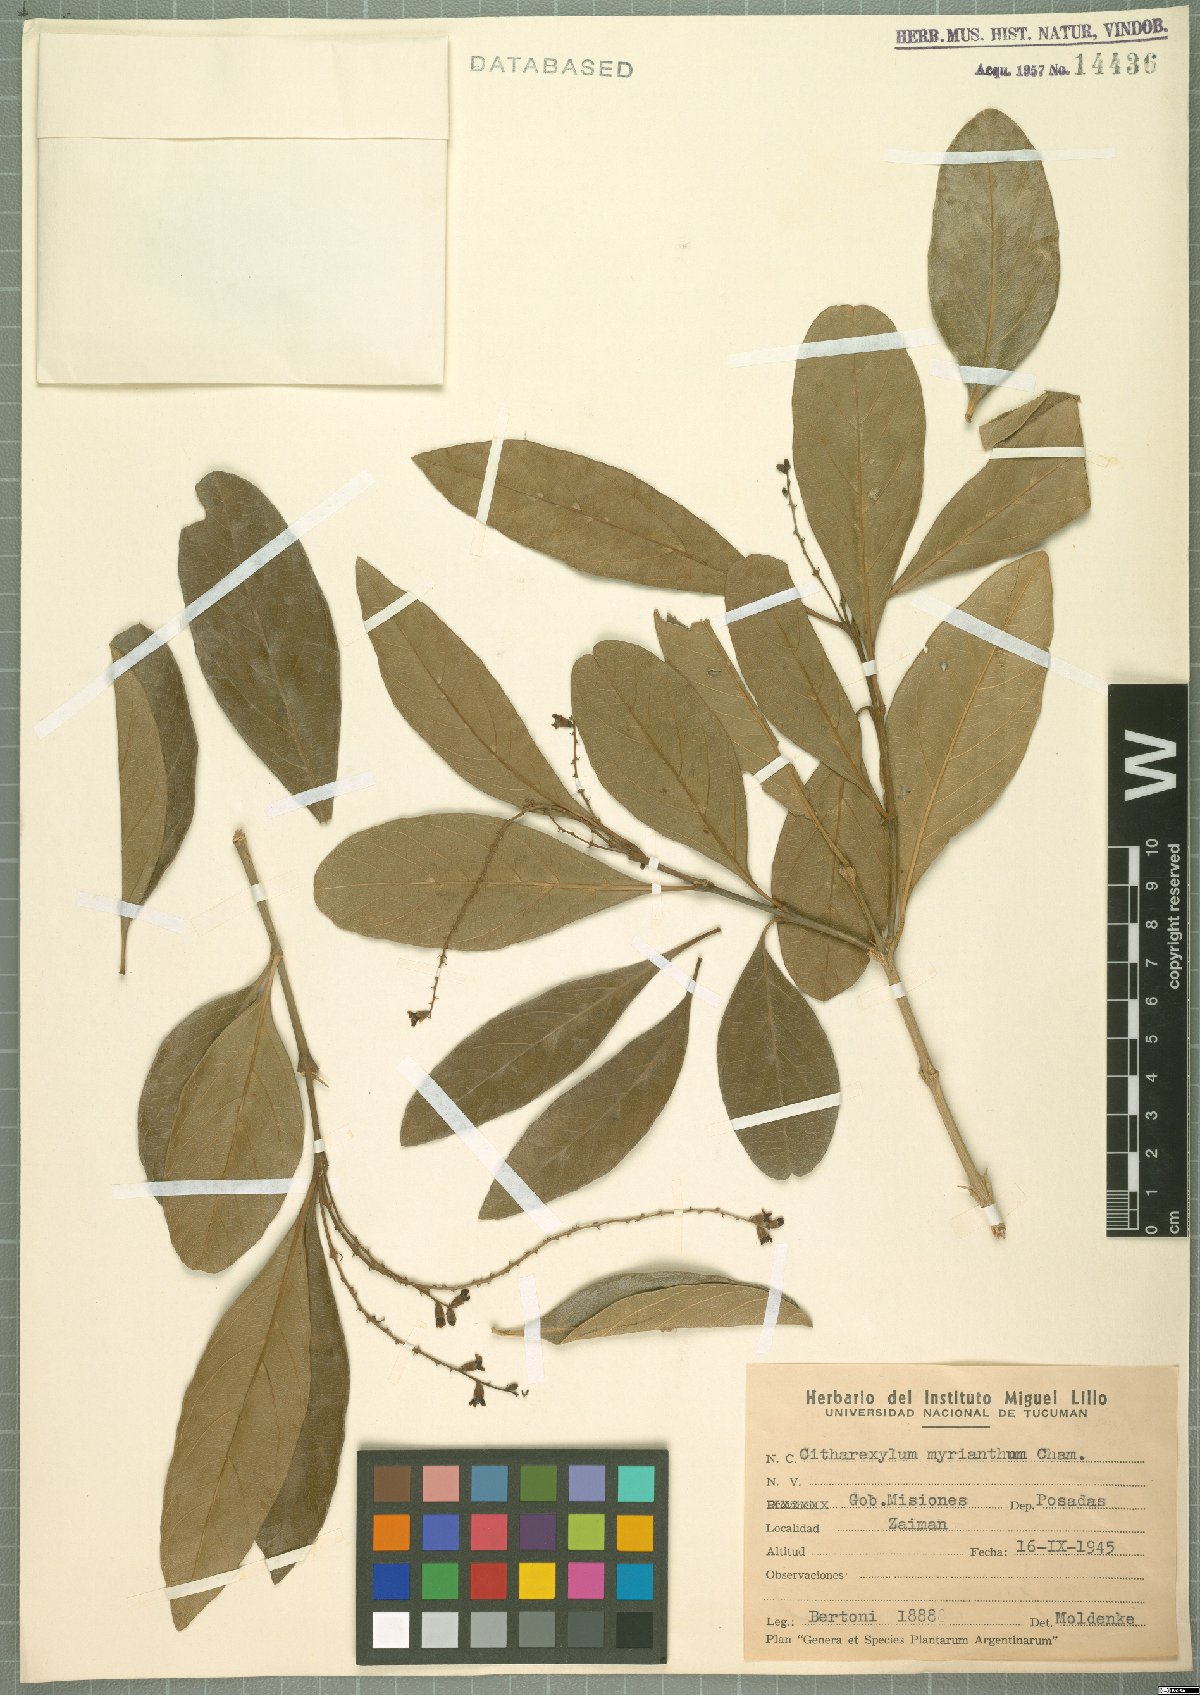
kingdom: Plantae
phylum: Tracheophyta
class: Magnoliopsida
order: Lamiales
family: Verbenaceae
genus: Citharexylum
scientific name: Citharexylum myrianthum
